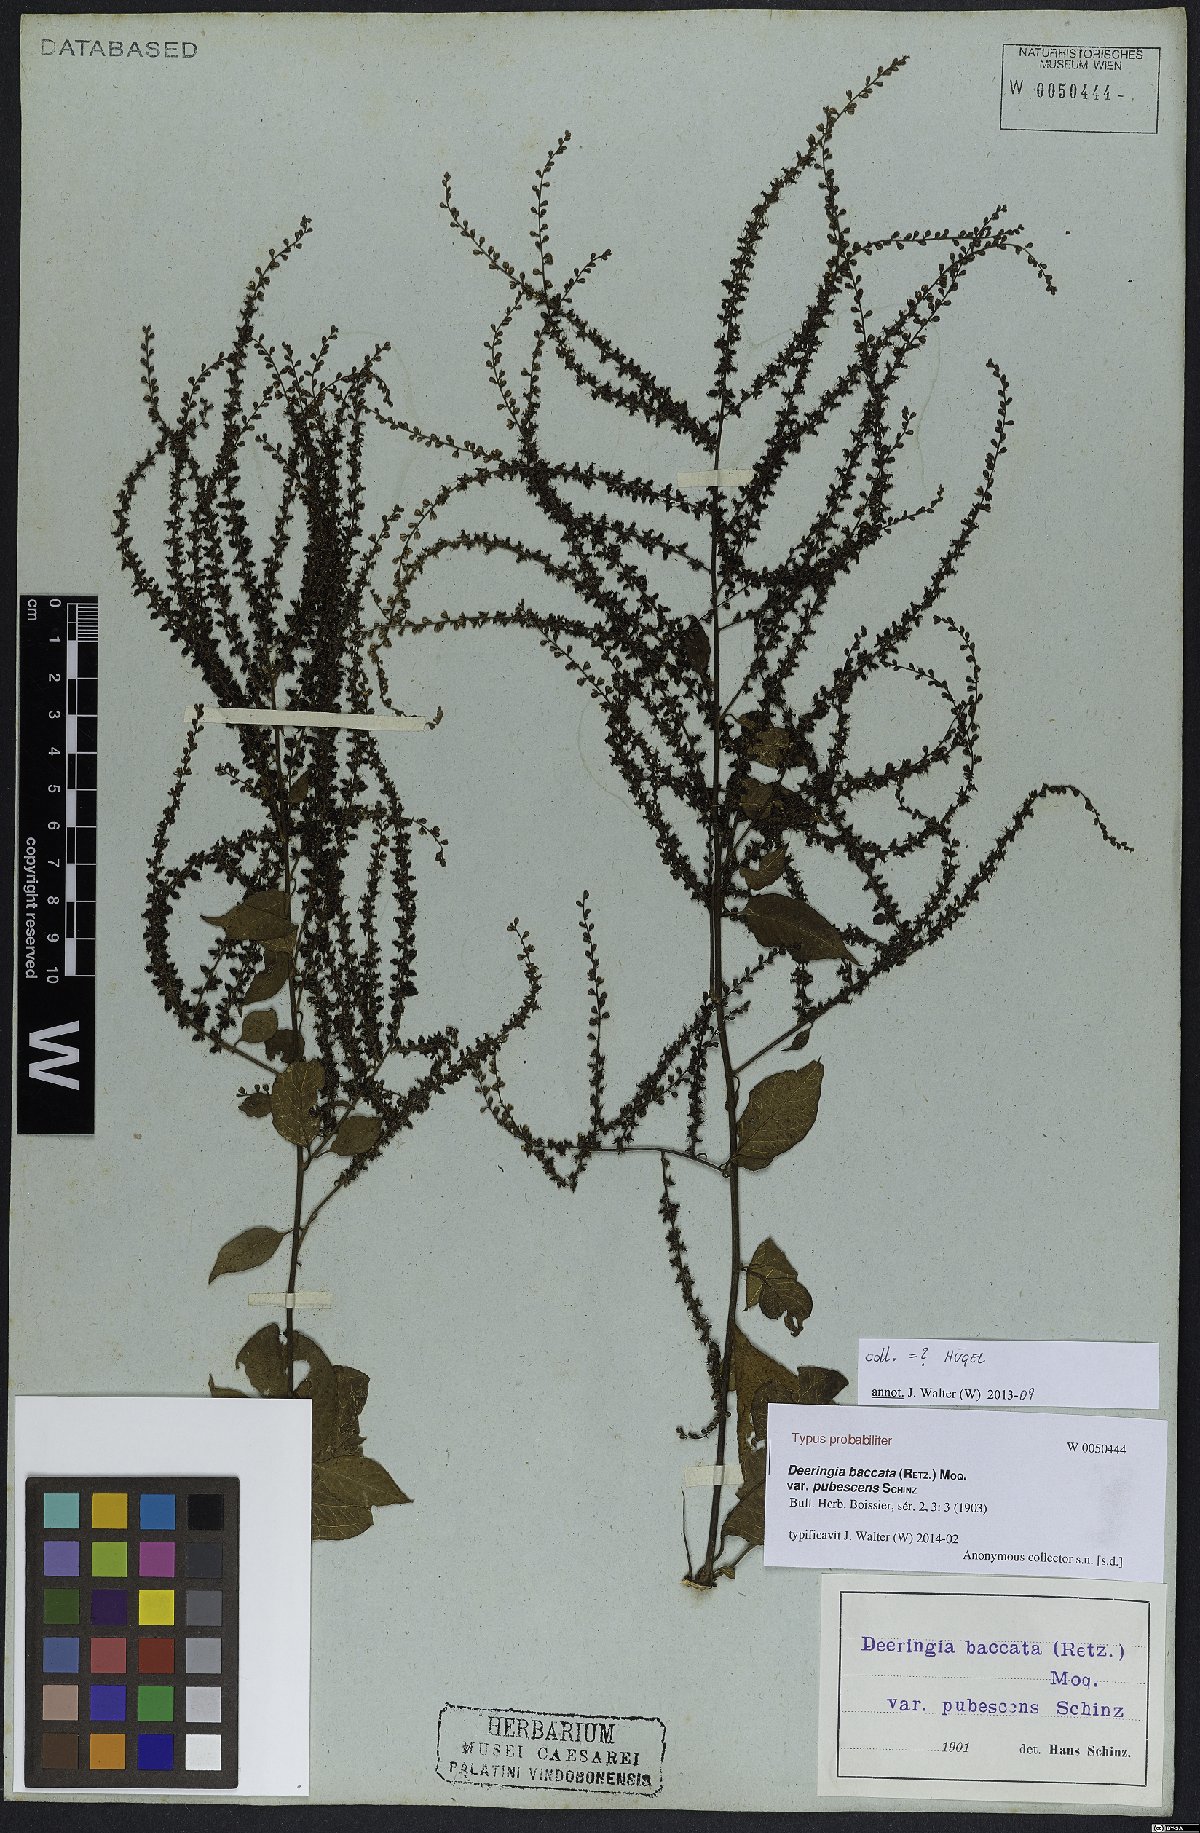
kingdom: Plantae
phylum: Tracheophyta
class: Magnoliopsida
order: Caryophyllales
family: Amaranthaceae
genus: Deeringia
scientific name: Deeringia amaranthoides
